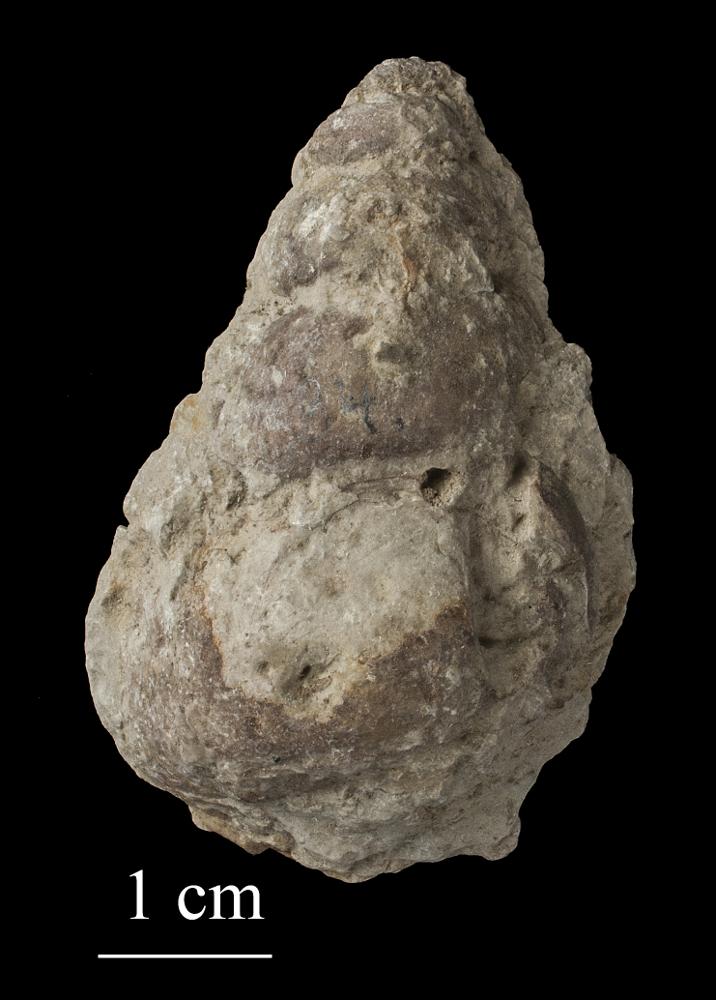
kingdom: Animalia
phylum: Mollusca
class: Gastropoda
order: Pleurotomariida
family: Murchisoniidae
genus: Murchisonia
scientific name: Murchisonia insignis
